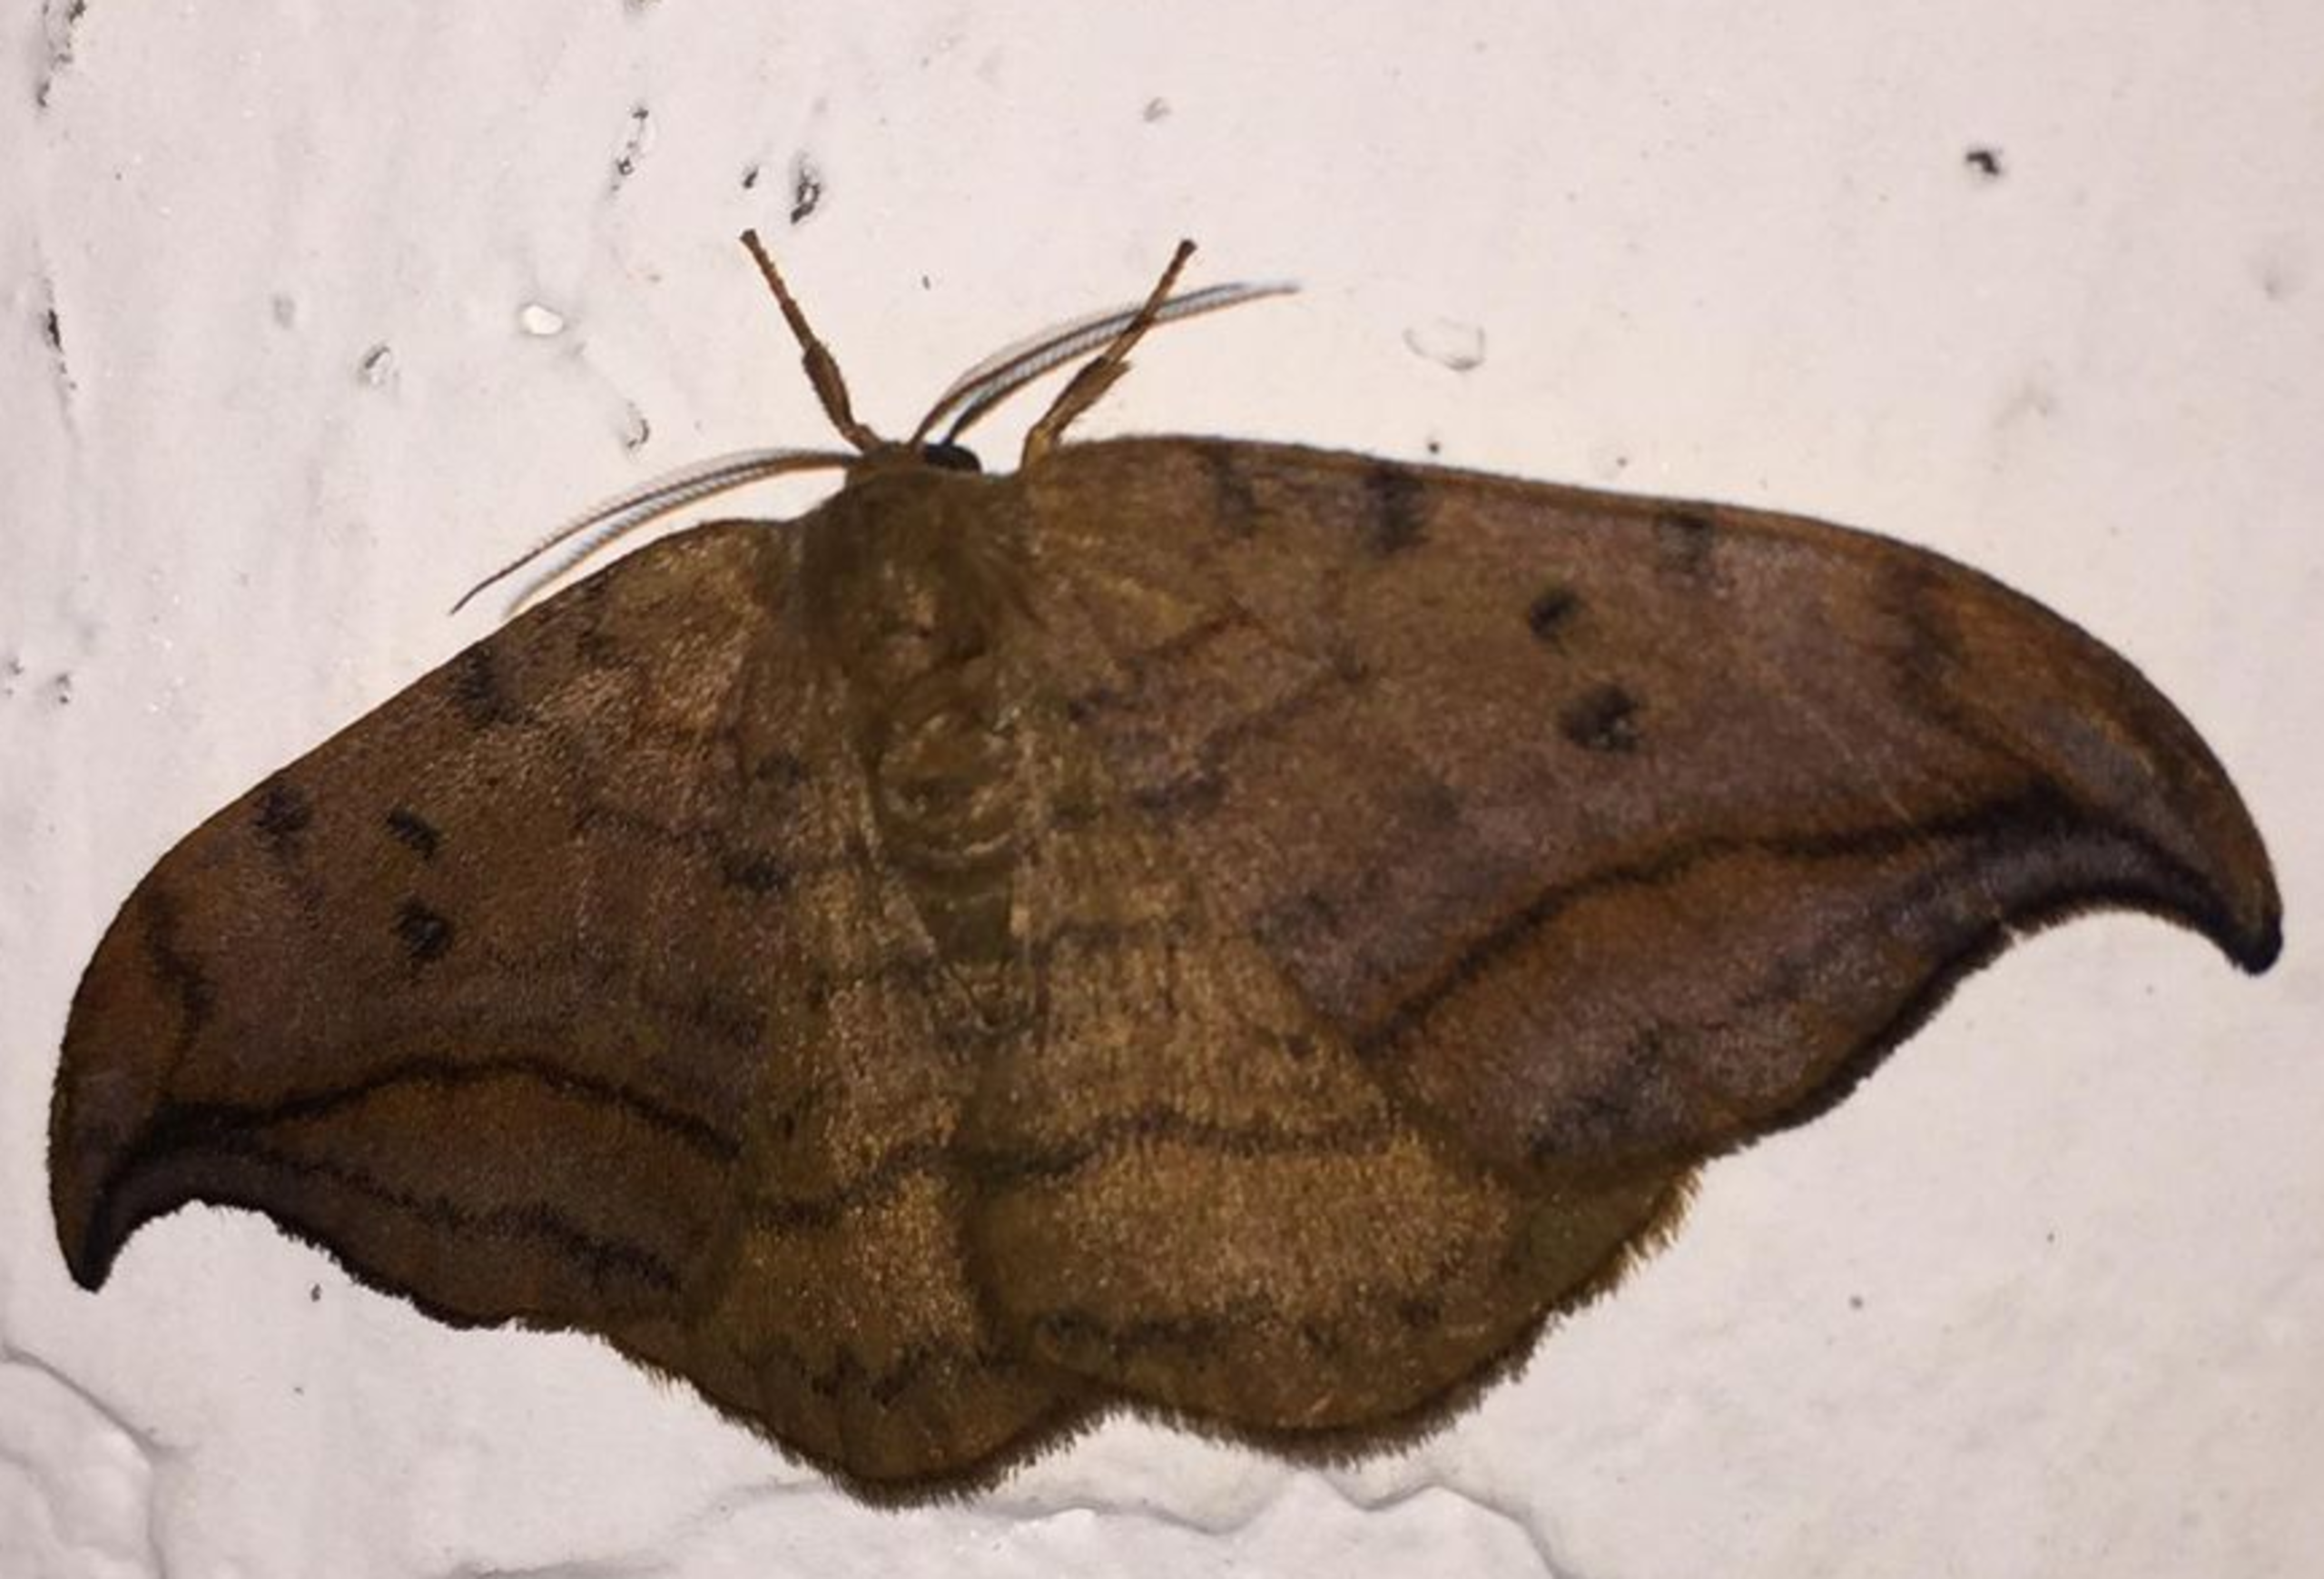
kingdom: Animalia
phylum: Arthropoda
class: Insecta
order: Lepidoptera
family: Drepanidae
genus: Drepana
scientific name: Drepana curvatula
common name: Brun seglvinge
